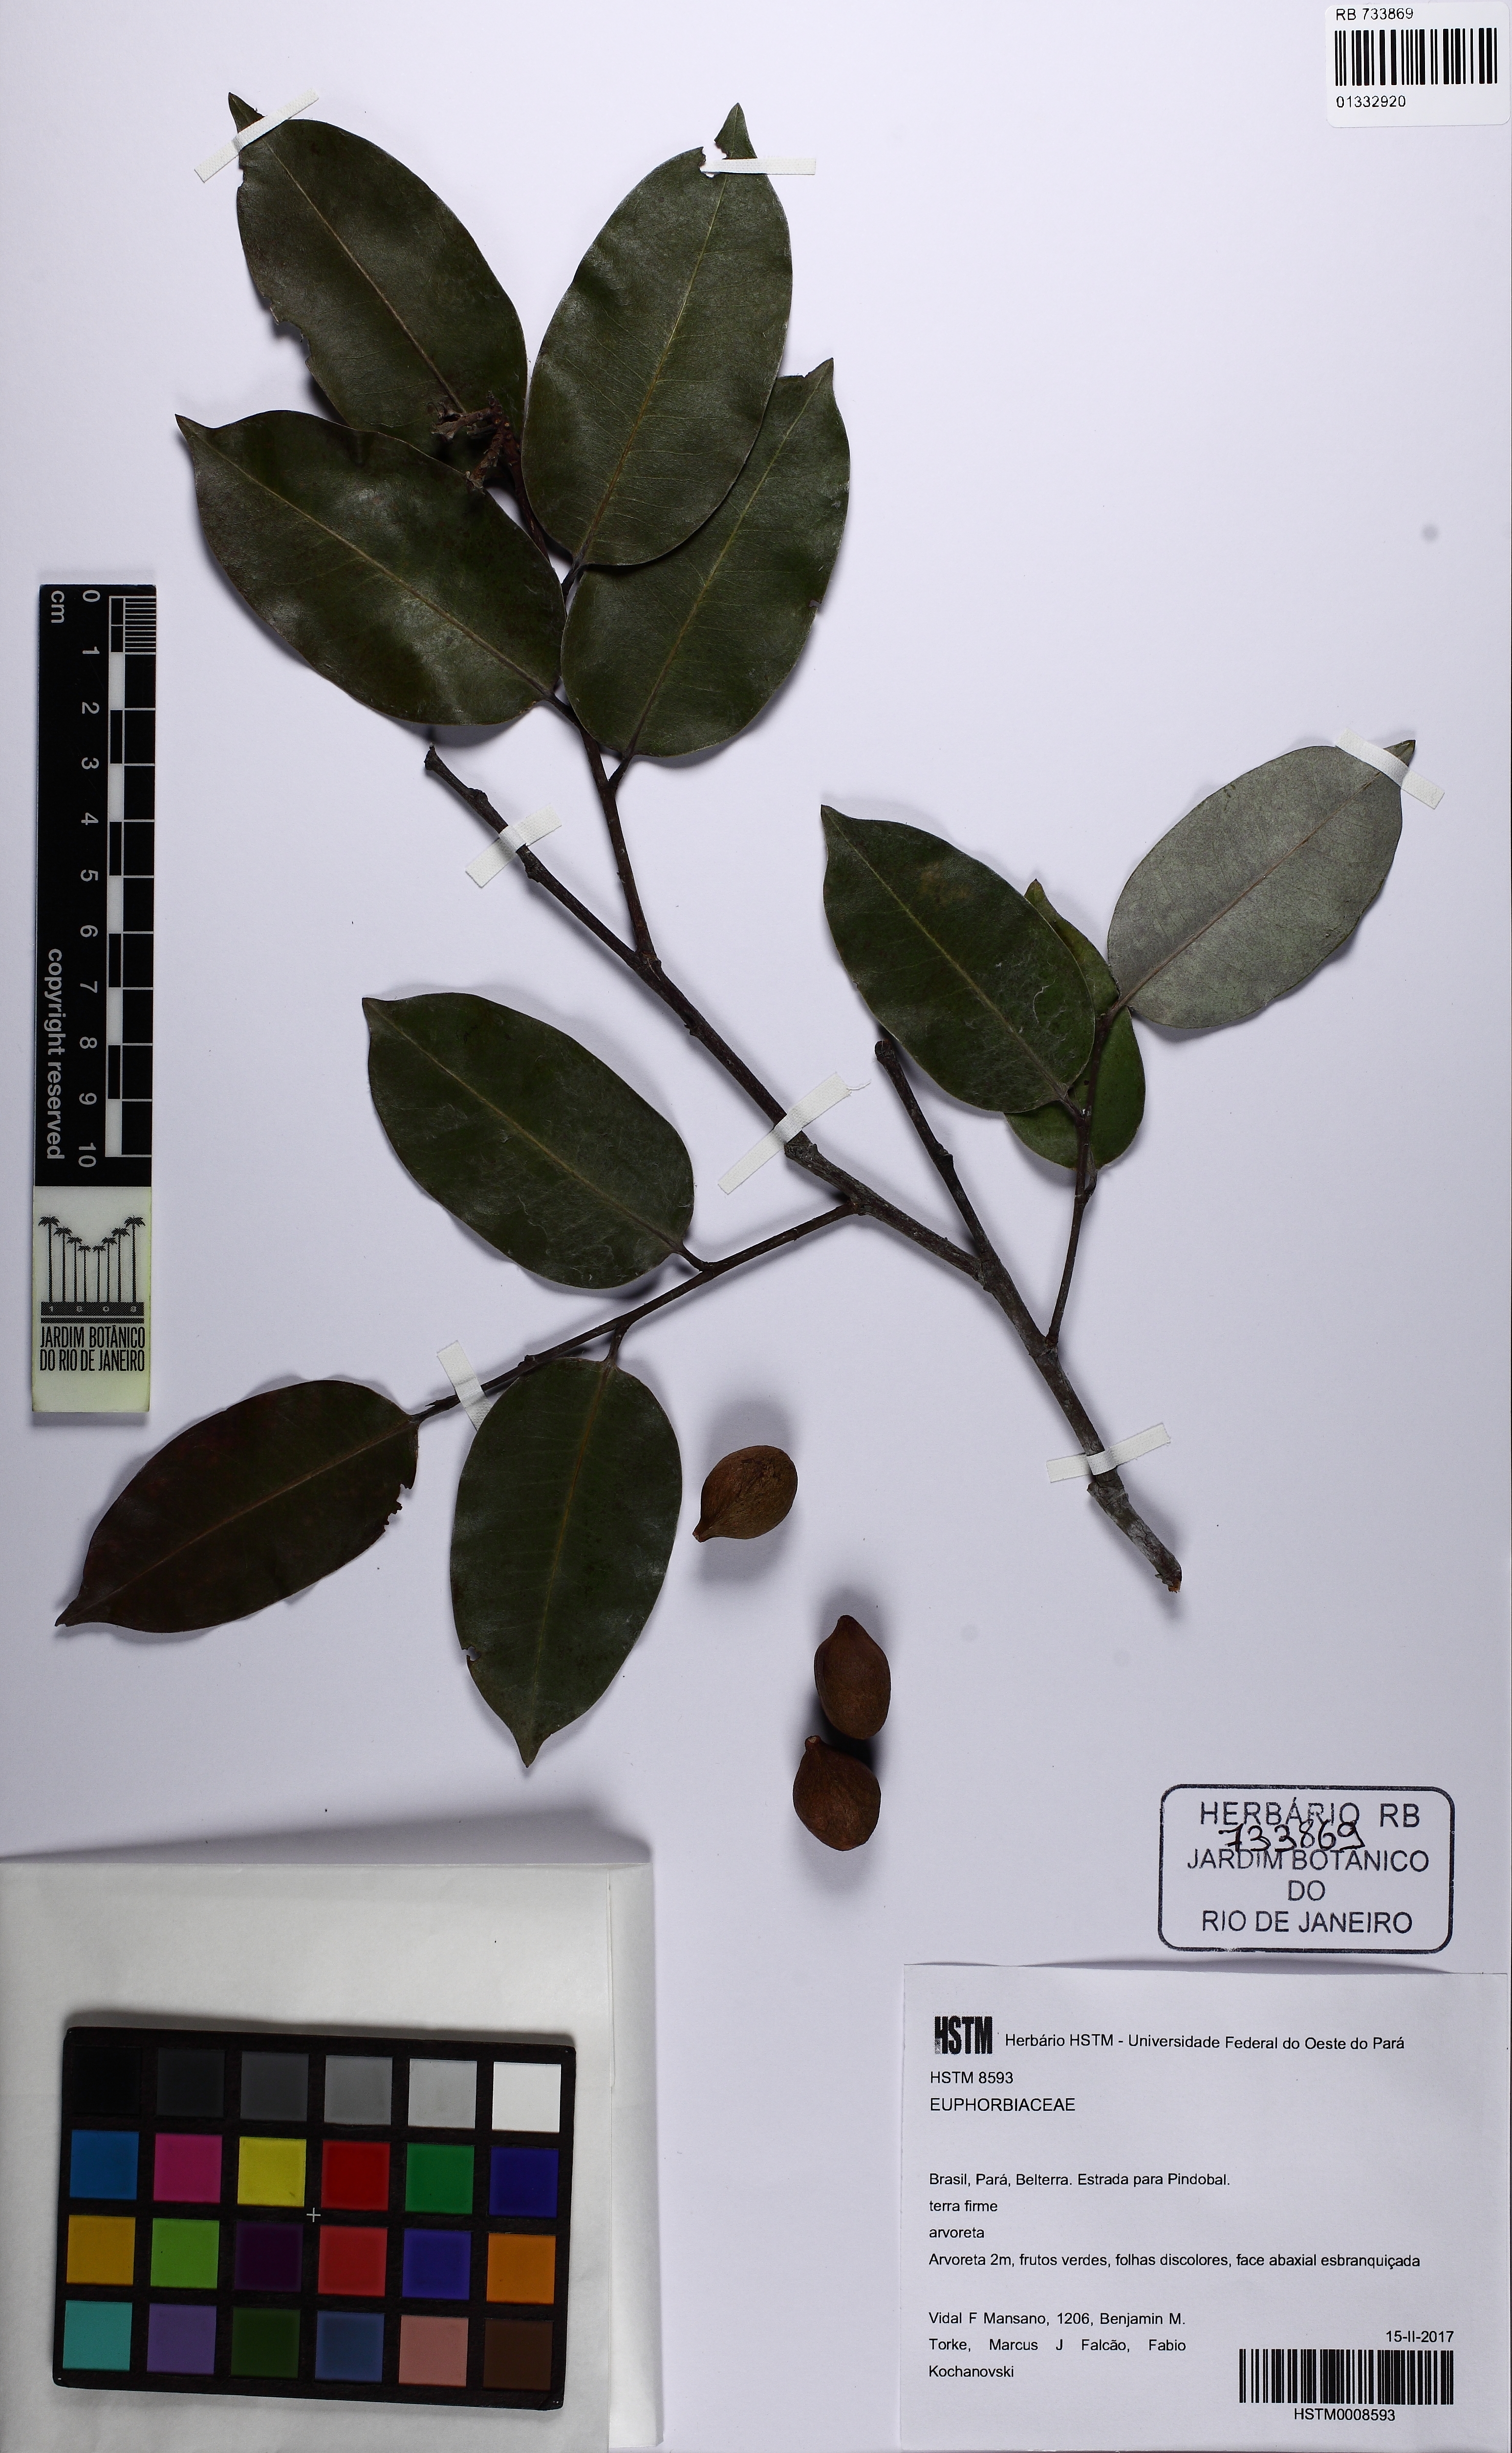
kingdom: Plantae
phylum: Tracheophyta
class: Magnoliopsida
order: Malpighiales
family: Euphorbiaceae
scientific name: Euphorbiaceae
